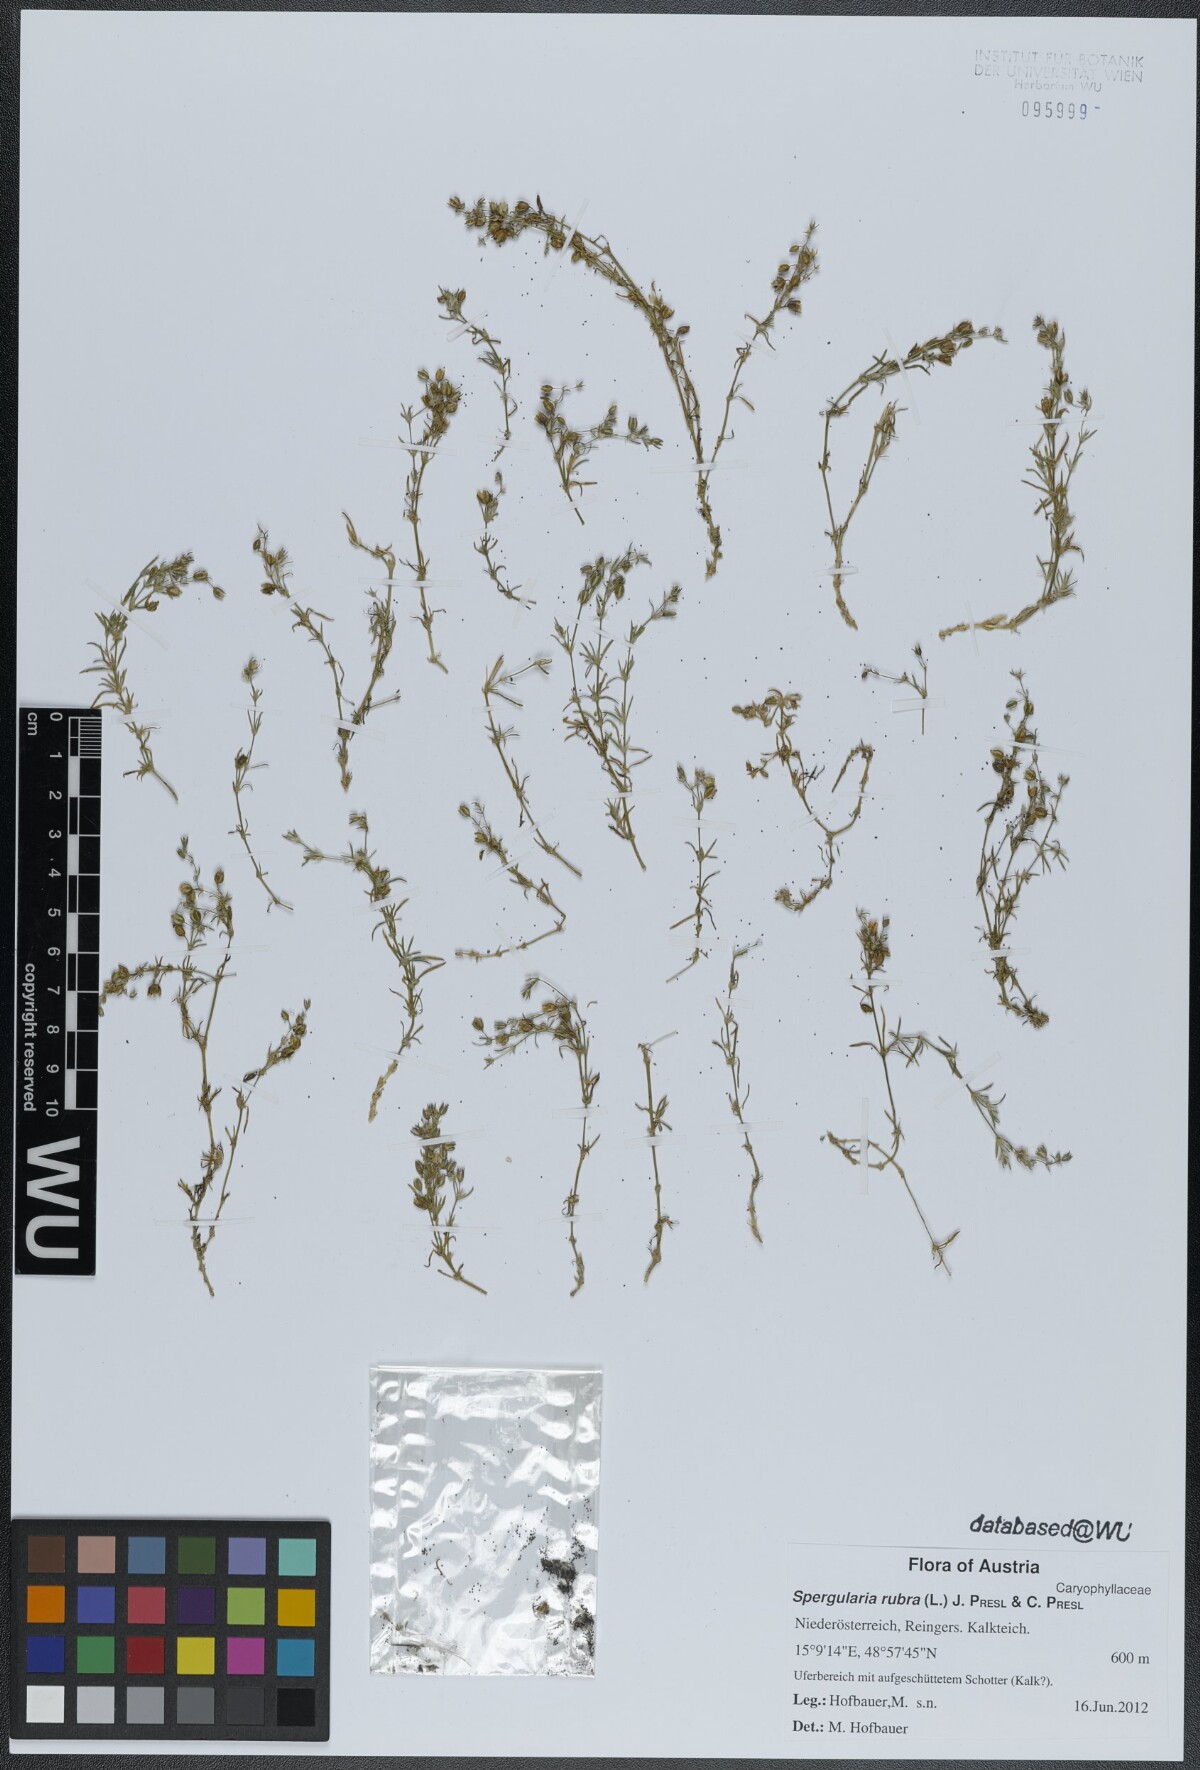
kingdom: Plantae
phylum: Tracheophyta
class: Magnoliopsida
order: Caryophyllales
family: Caryophyllaceae
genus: Spergularia
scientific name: Spergularia rubra
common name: Red sand-spurrey
